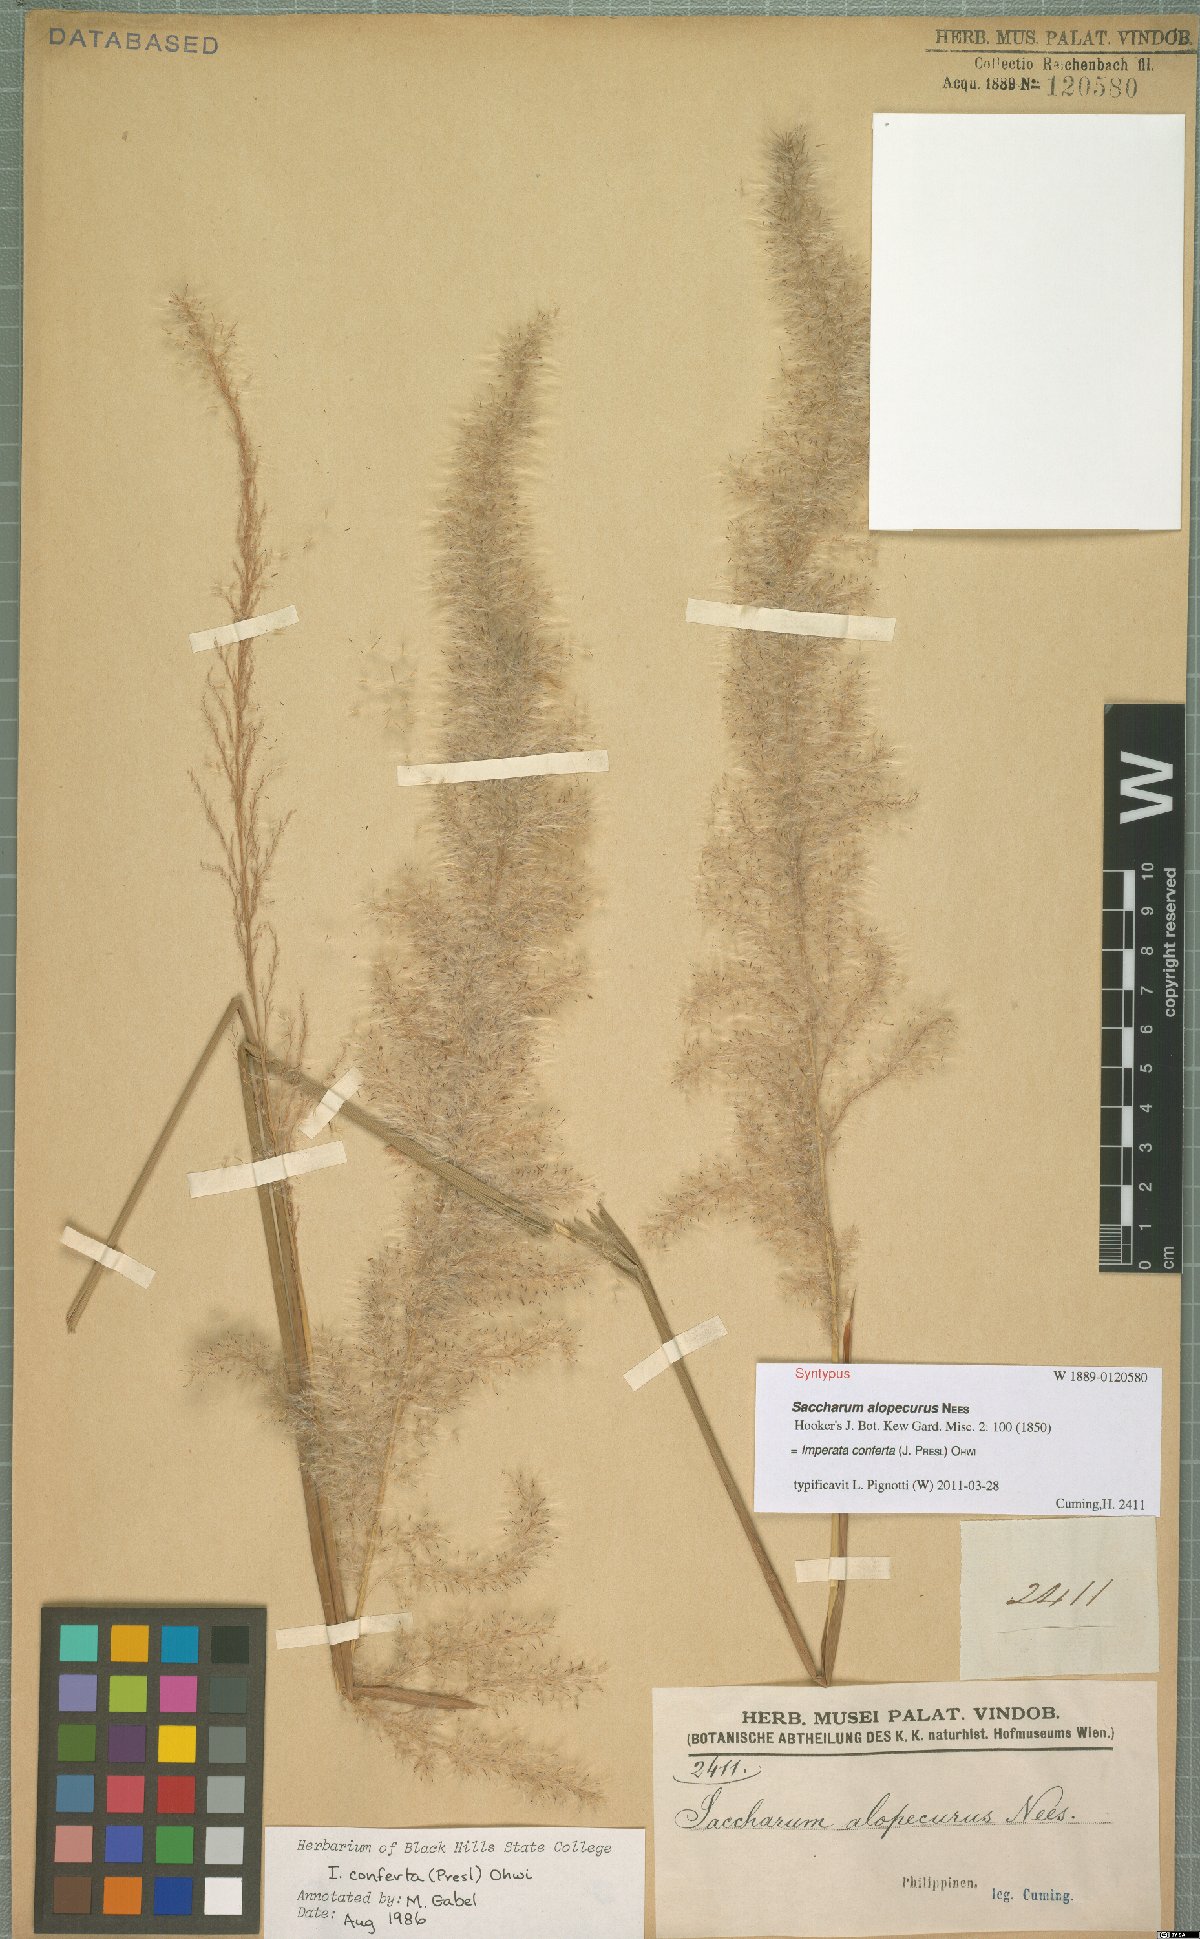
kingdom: Plantae
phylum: Tracheophyta
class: Liliopsida
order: Poales
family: Poaceae
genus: Imperata
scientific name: Imperata conferta
